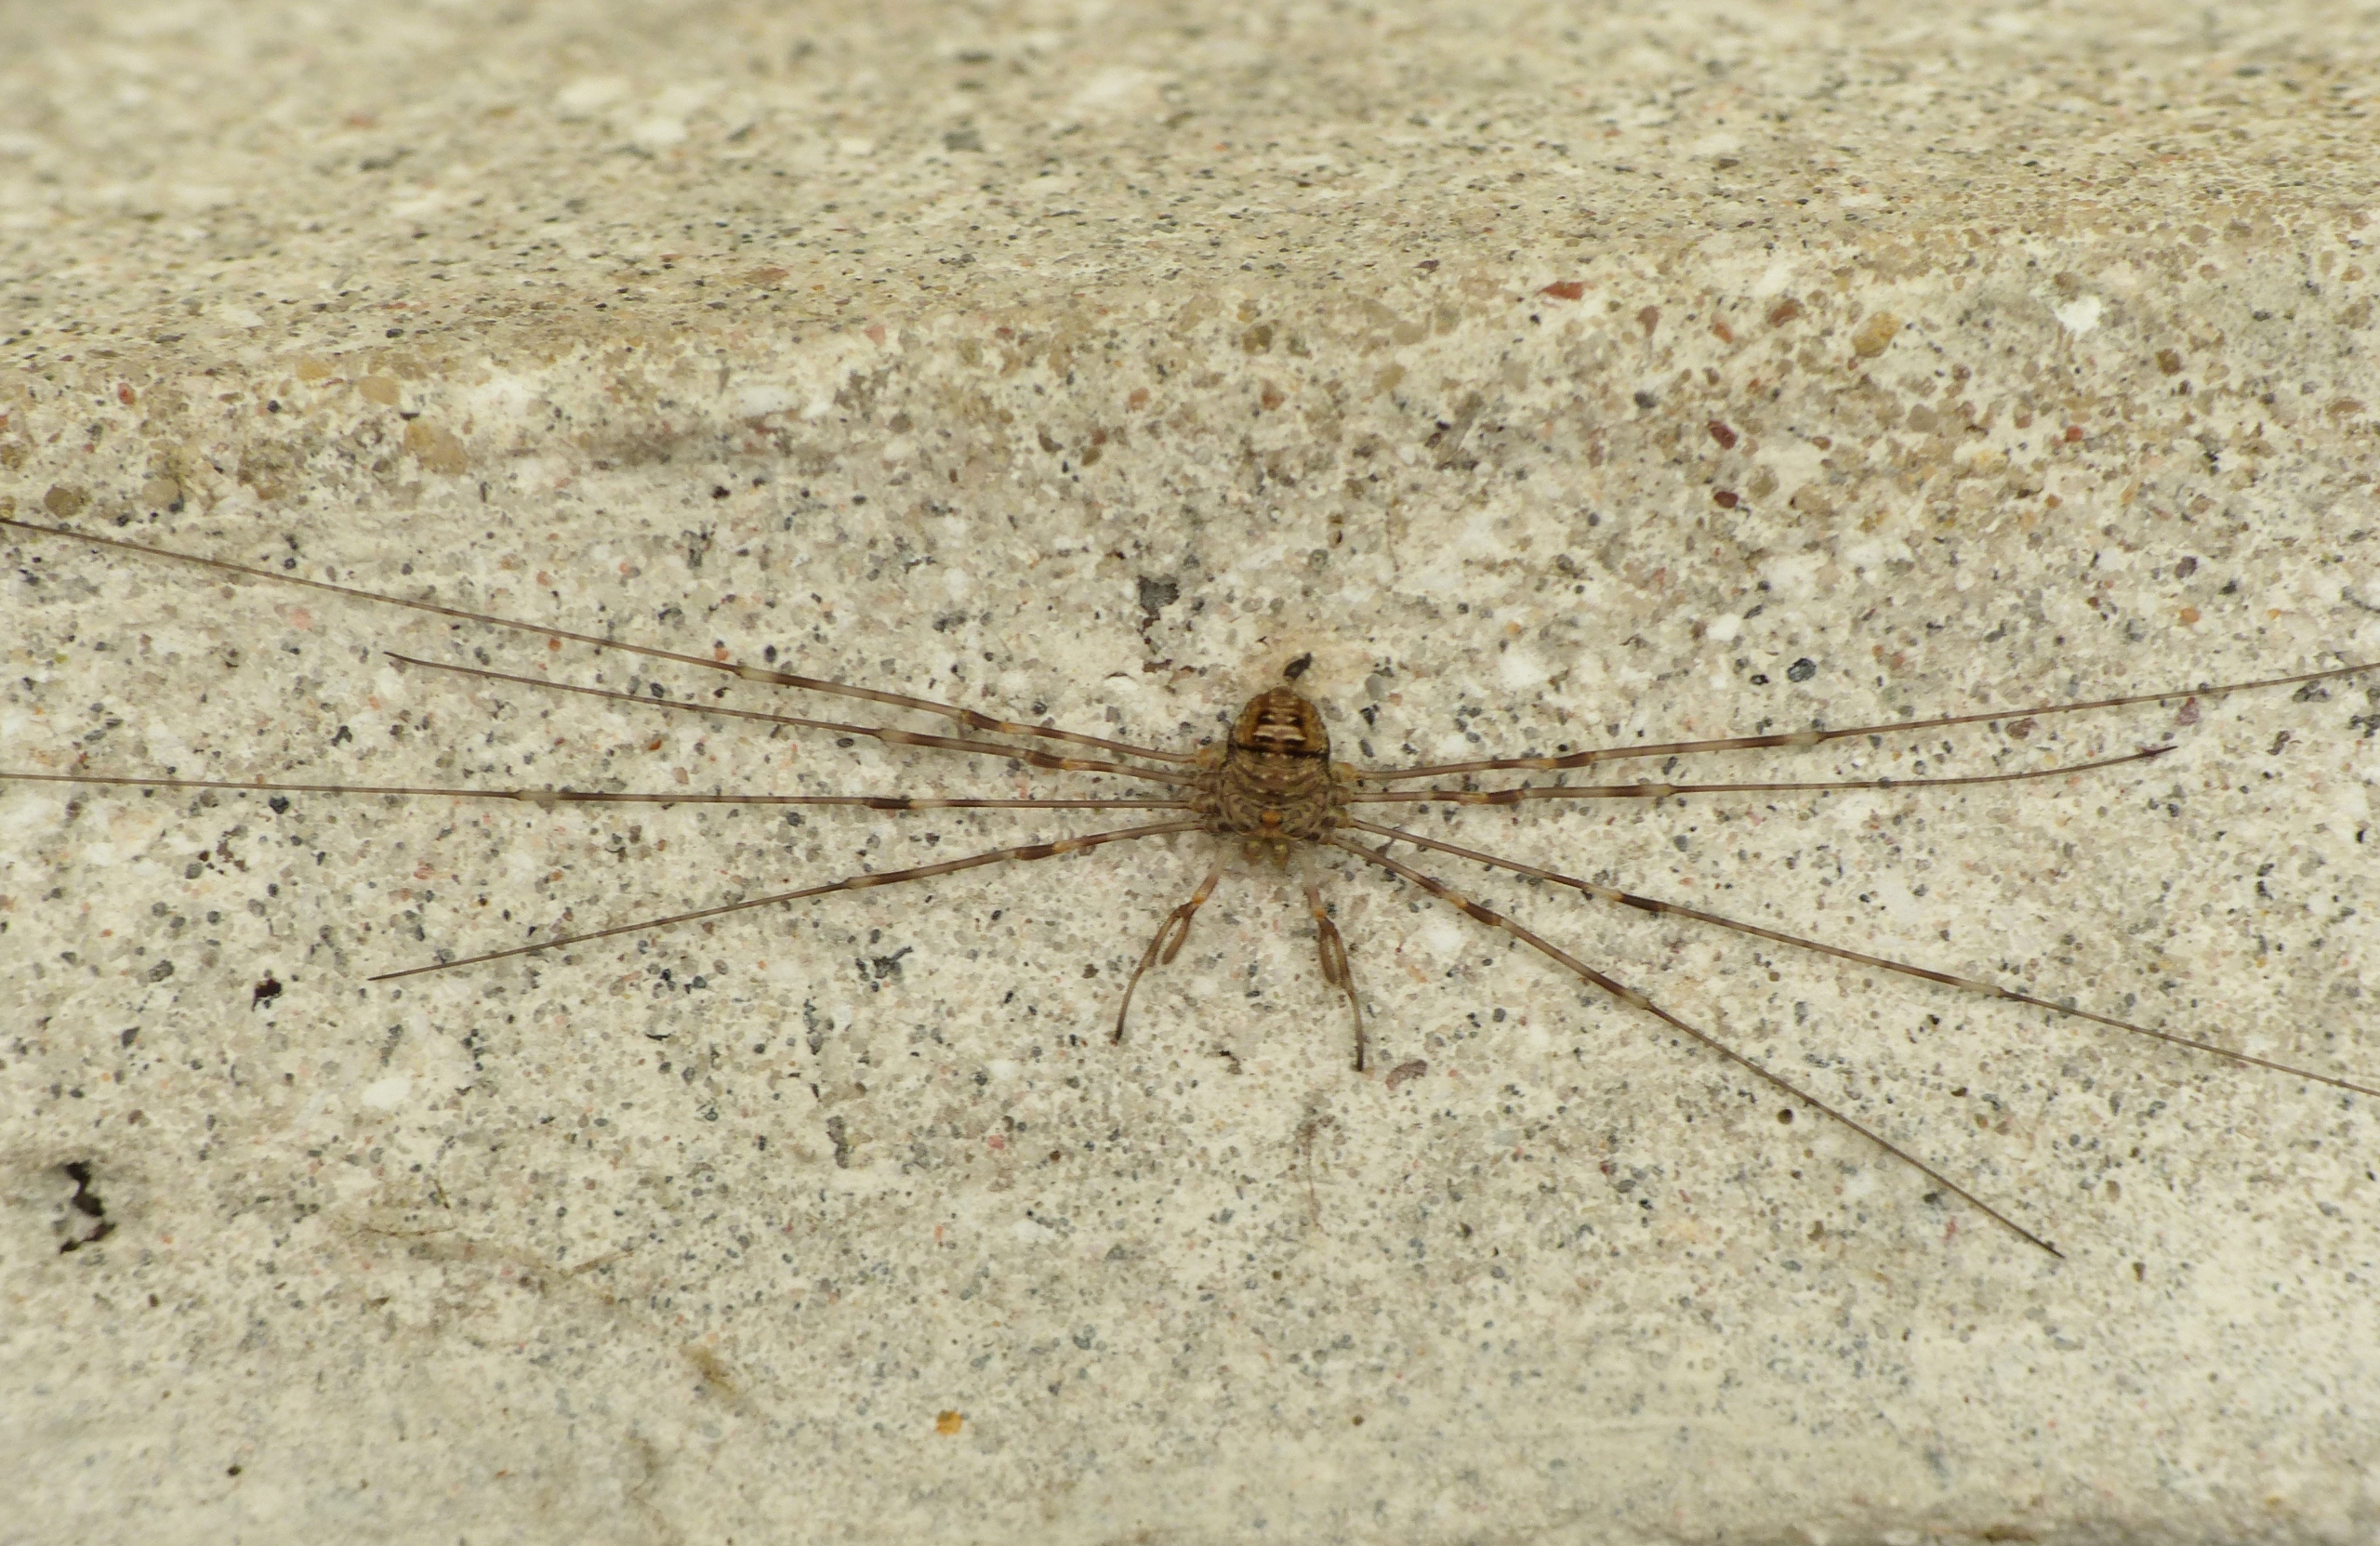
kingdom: Animalia
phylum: Arthropoda
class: Arachnida
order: Opiliones
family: Phalangiidae
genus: Dicranopalpus
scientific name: Dicranopalpus ramosus
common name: Gaffelmejer
